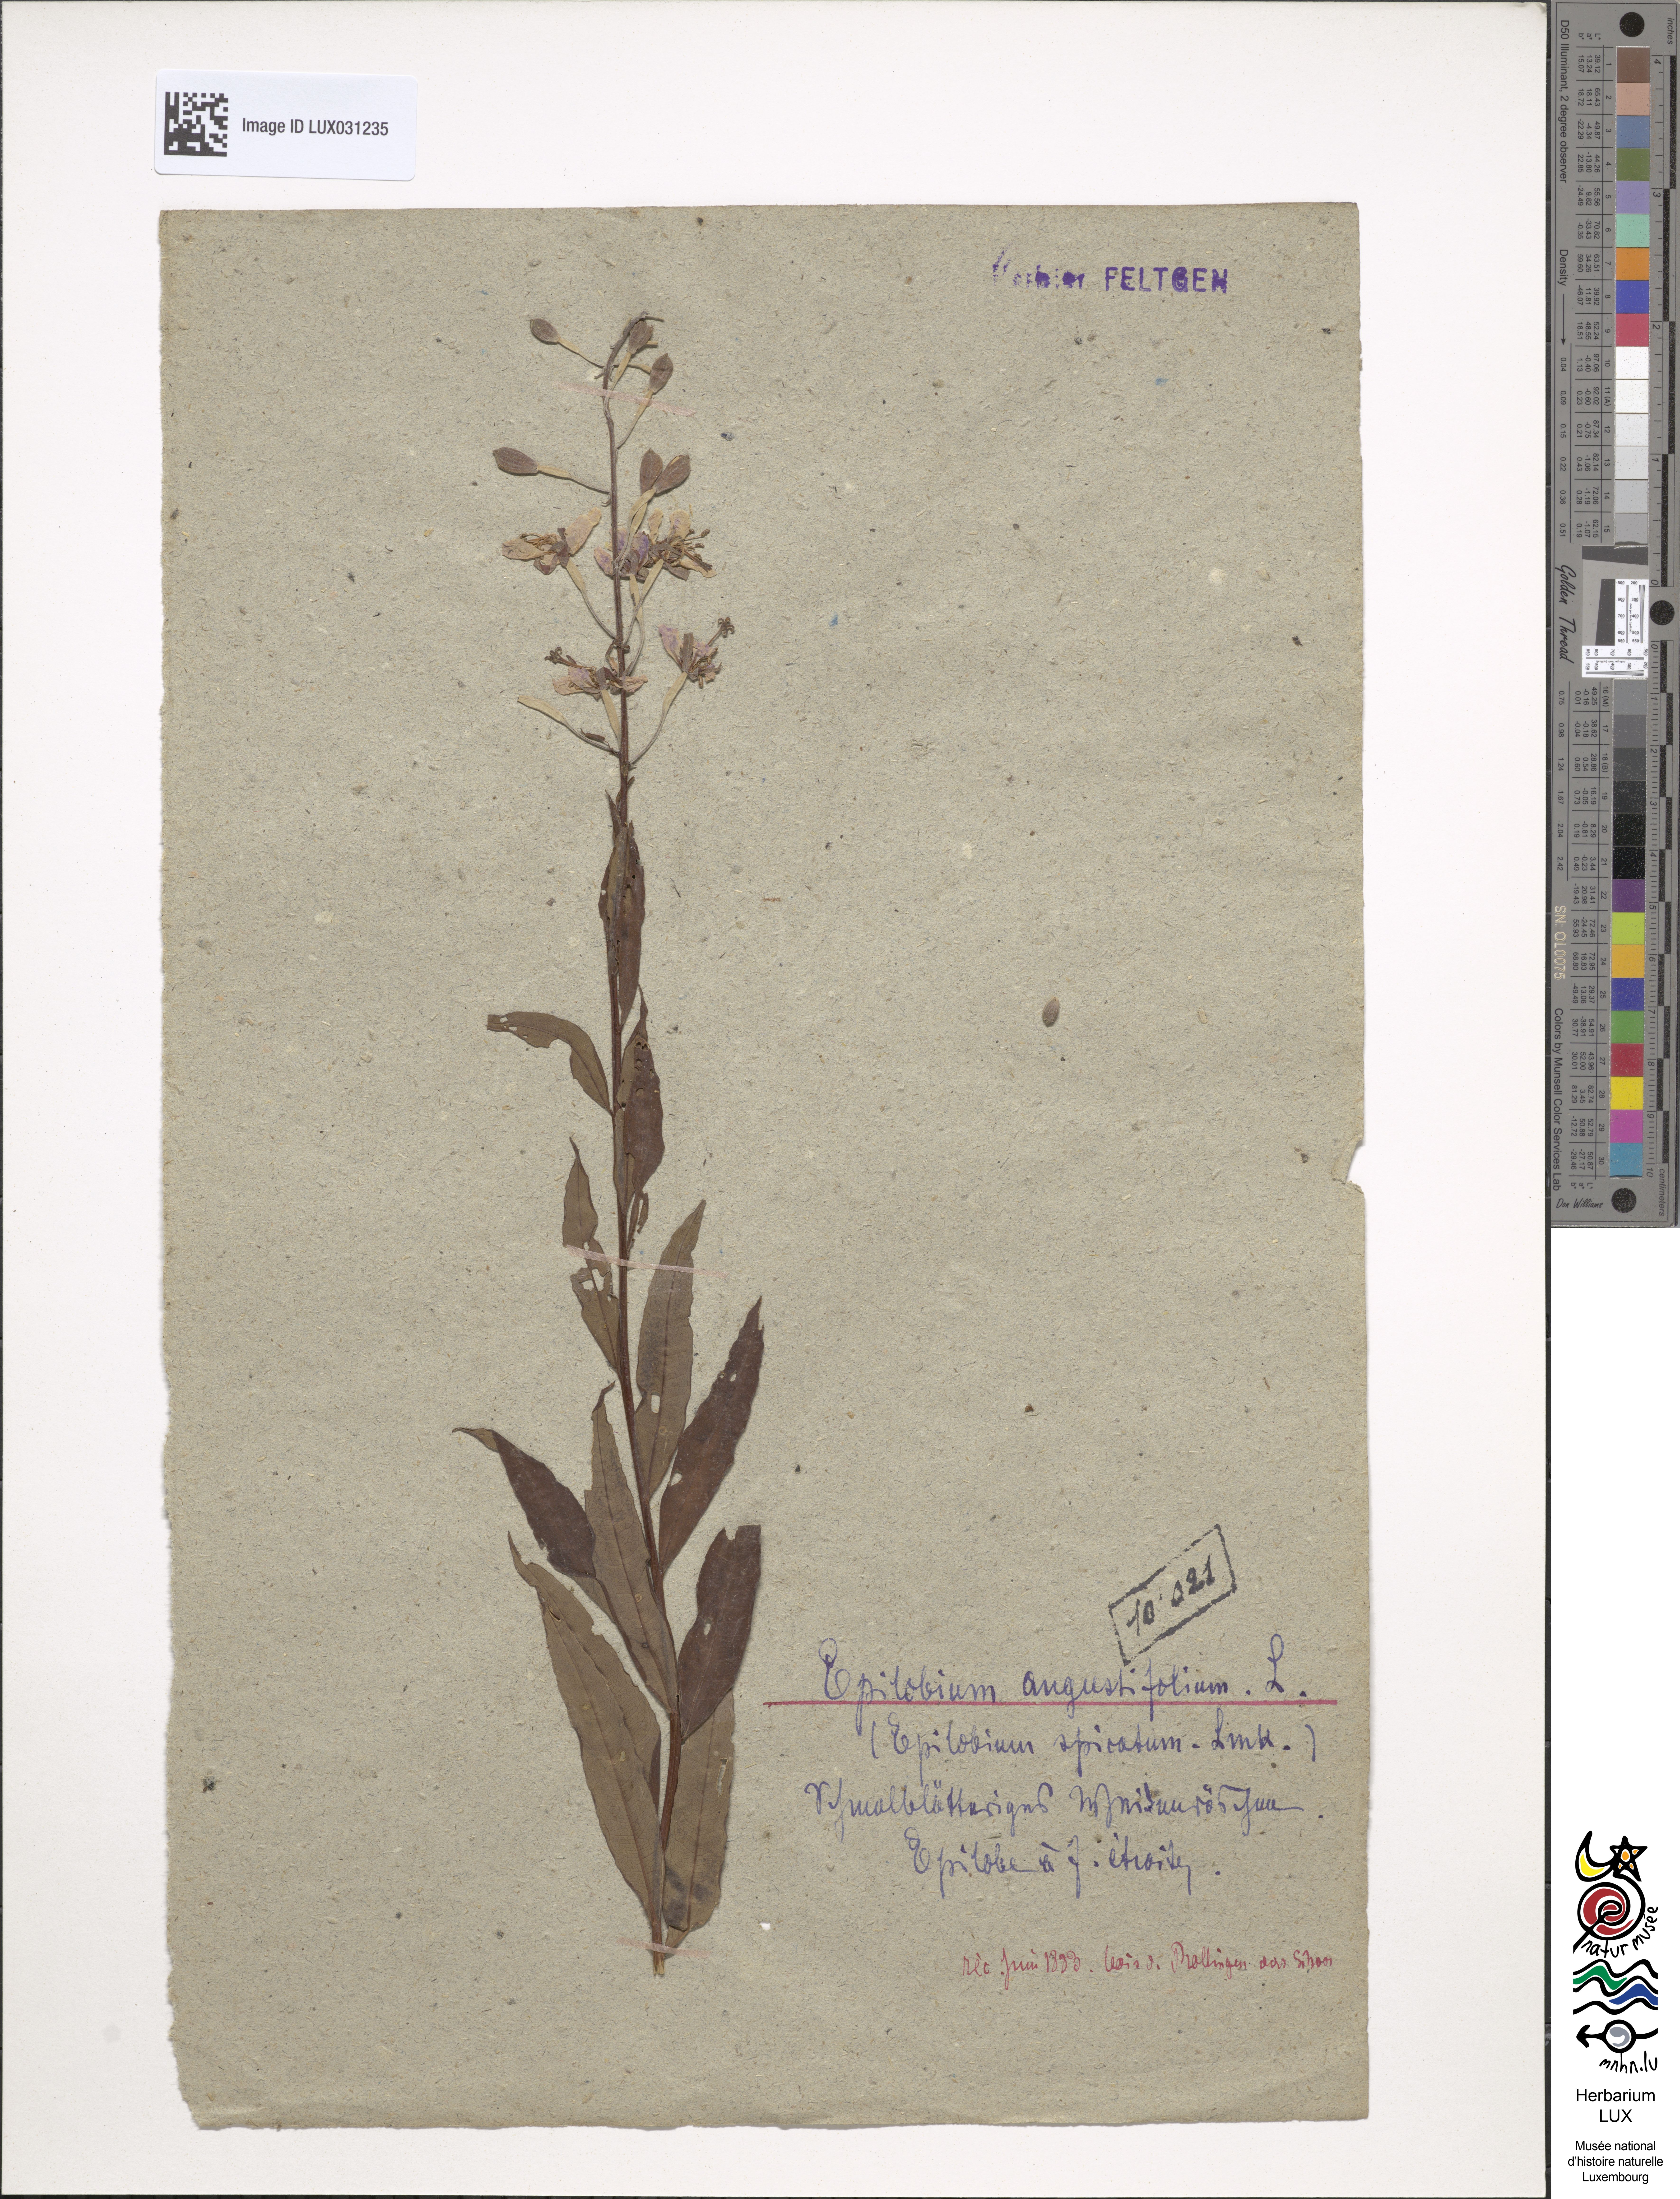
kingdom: Plantae
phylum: Tracheophyta
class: Magnoliopsida
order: Myrtales
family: Onagraceae
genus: Chamaenerion
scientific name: Chamaenerion angustifolium
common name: Fireweed
